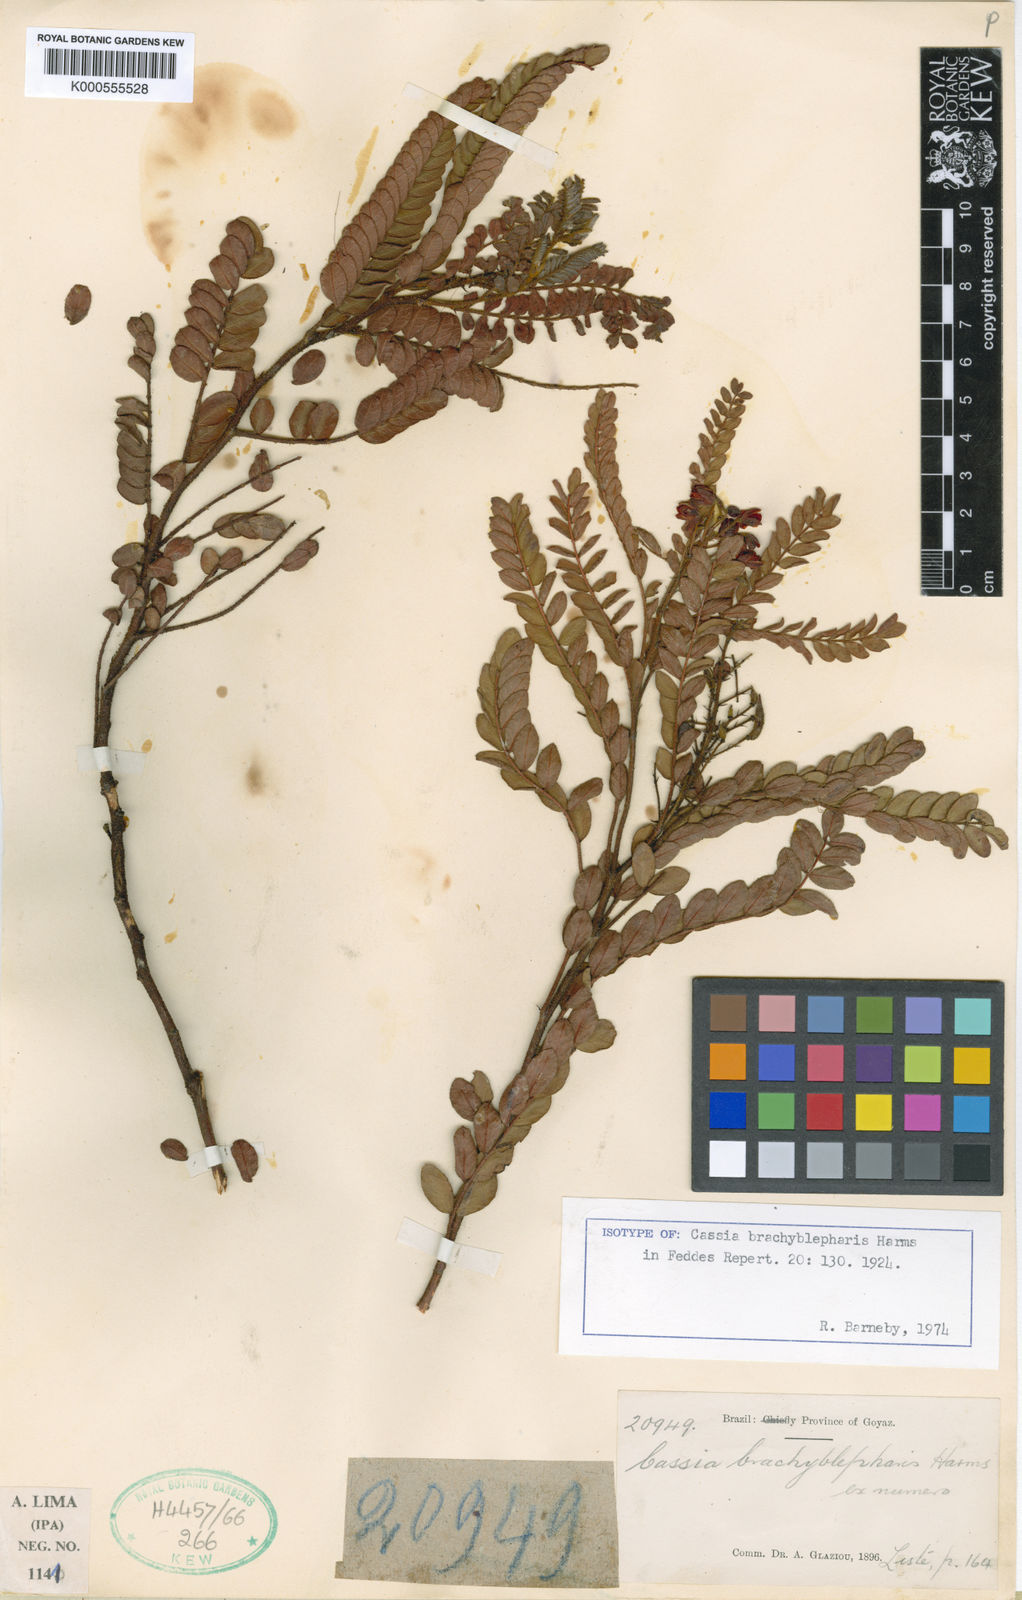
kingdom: Plantae
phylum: Tracheophyta
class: Magnoliopsida
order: Fabales
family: Fabaceae
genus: Chamaecrista
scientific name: Chamaecrista brachyblepharis
